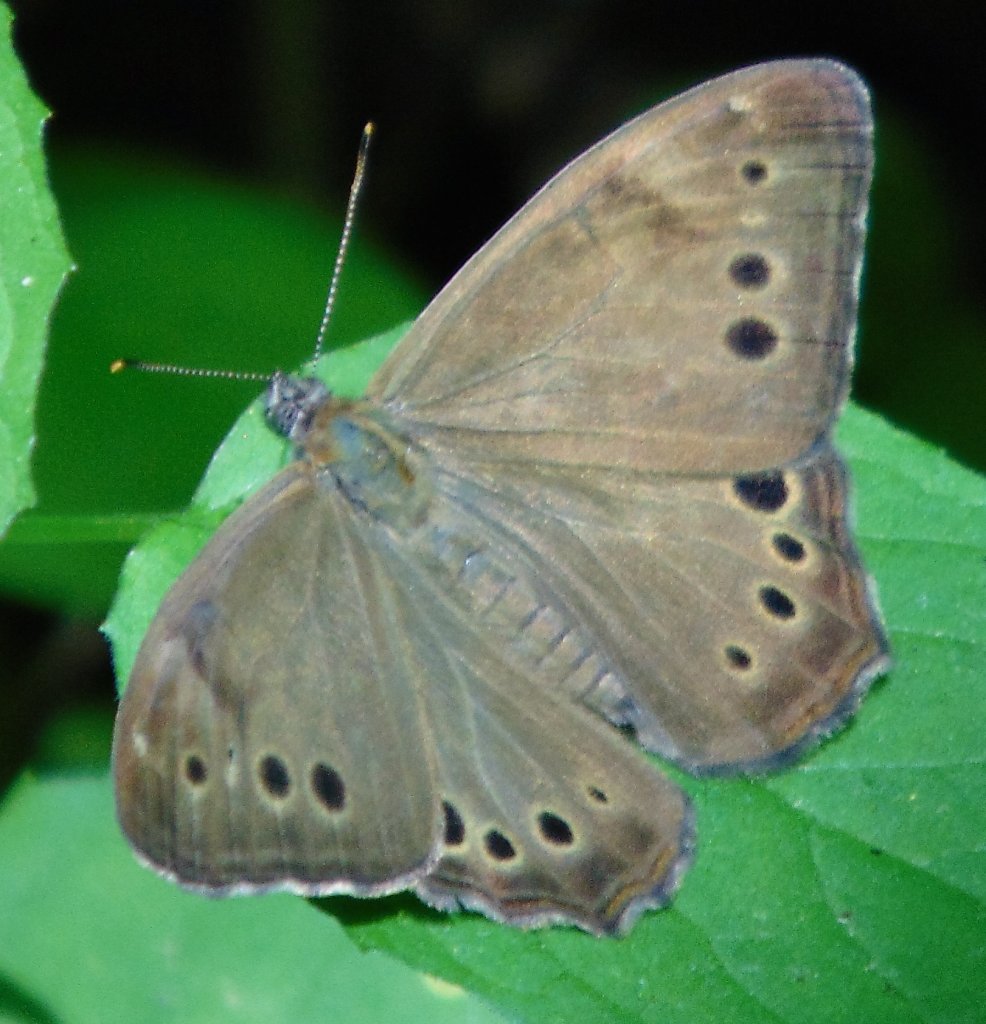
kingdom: Animalia
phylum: Arthropoda
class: Insecta
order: Lepidoptera
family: Nymphalidae
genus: Lethe
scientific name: Lethe anthedon
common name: Northern Pearly-Eye
